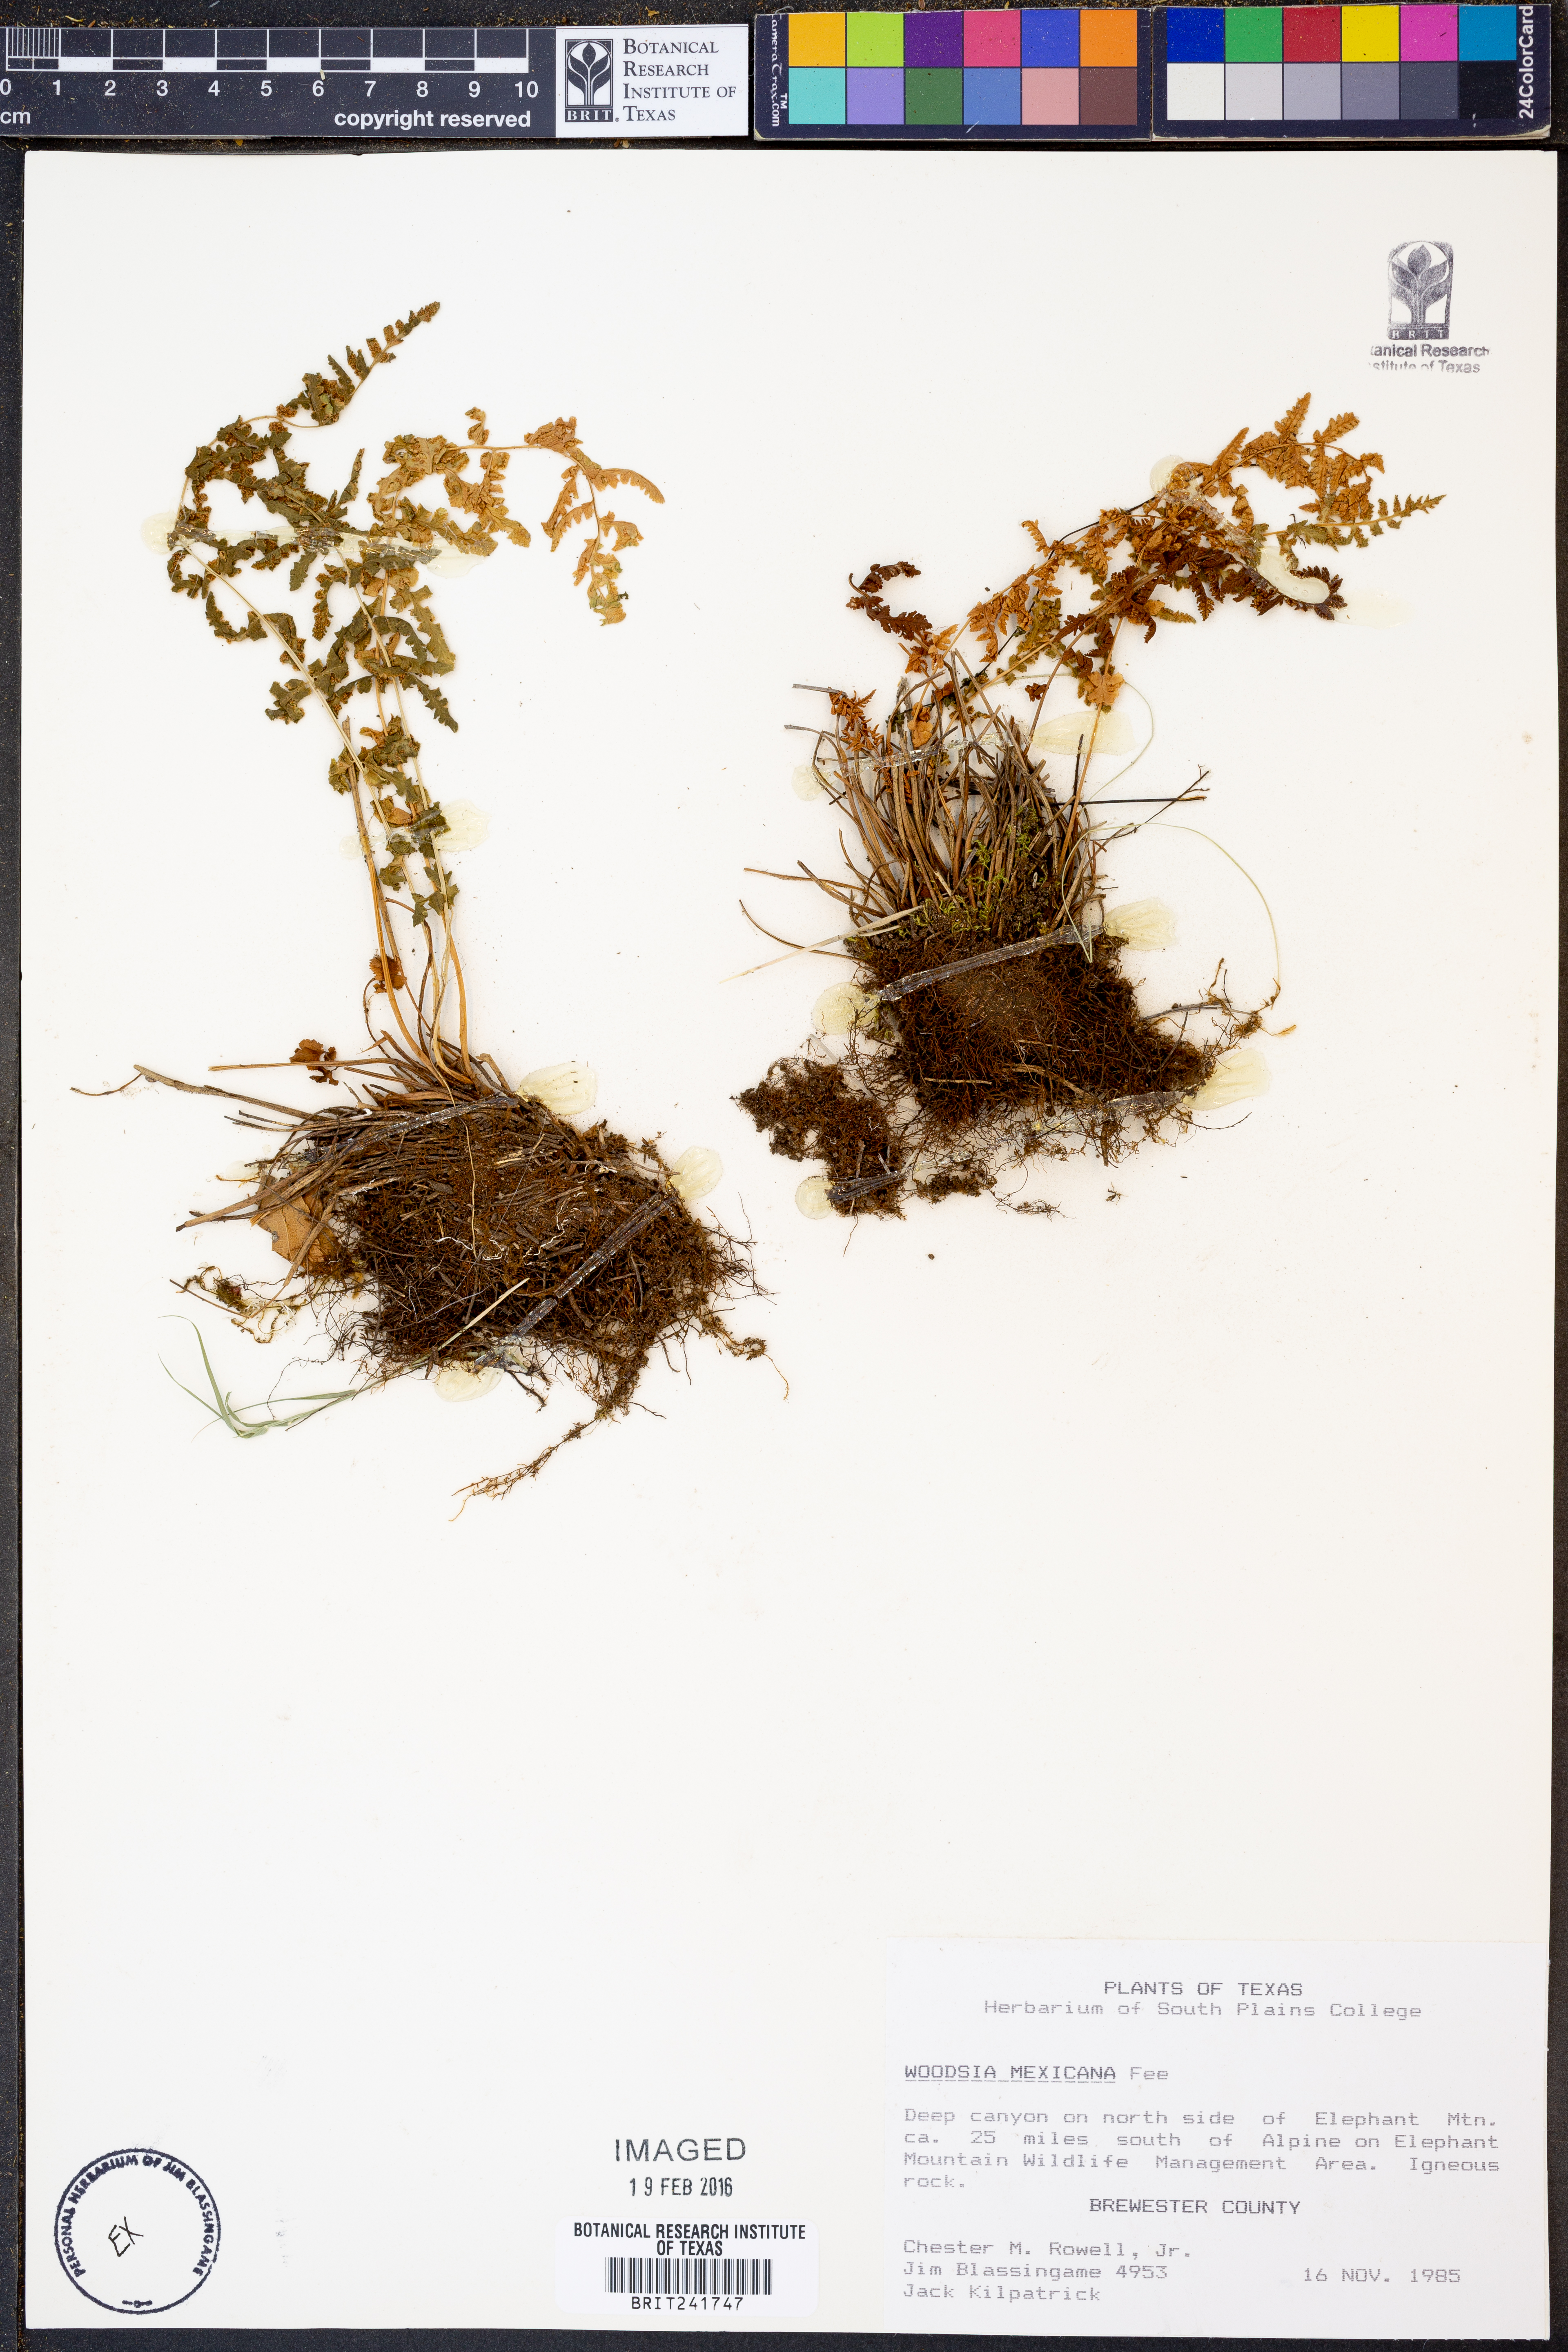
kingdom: Plantae
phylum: Tracheophyta
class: Polypodiopsida
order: Polypodiales
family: Woodsiaceae
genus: Physematium
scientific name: Physematium mexicanum
